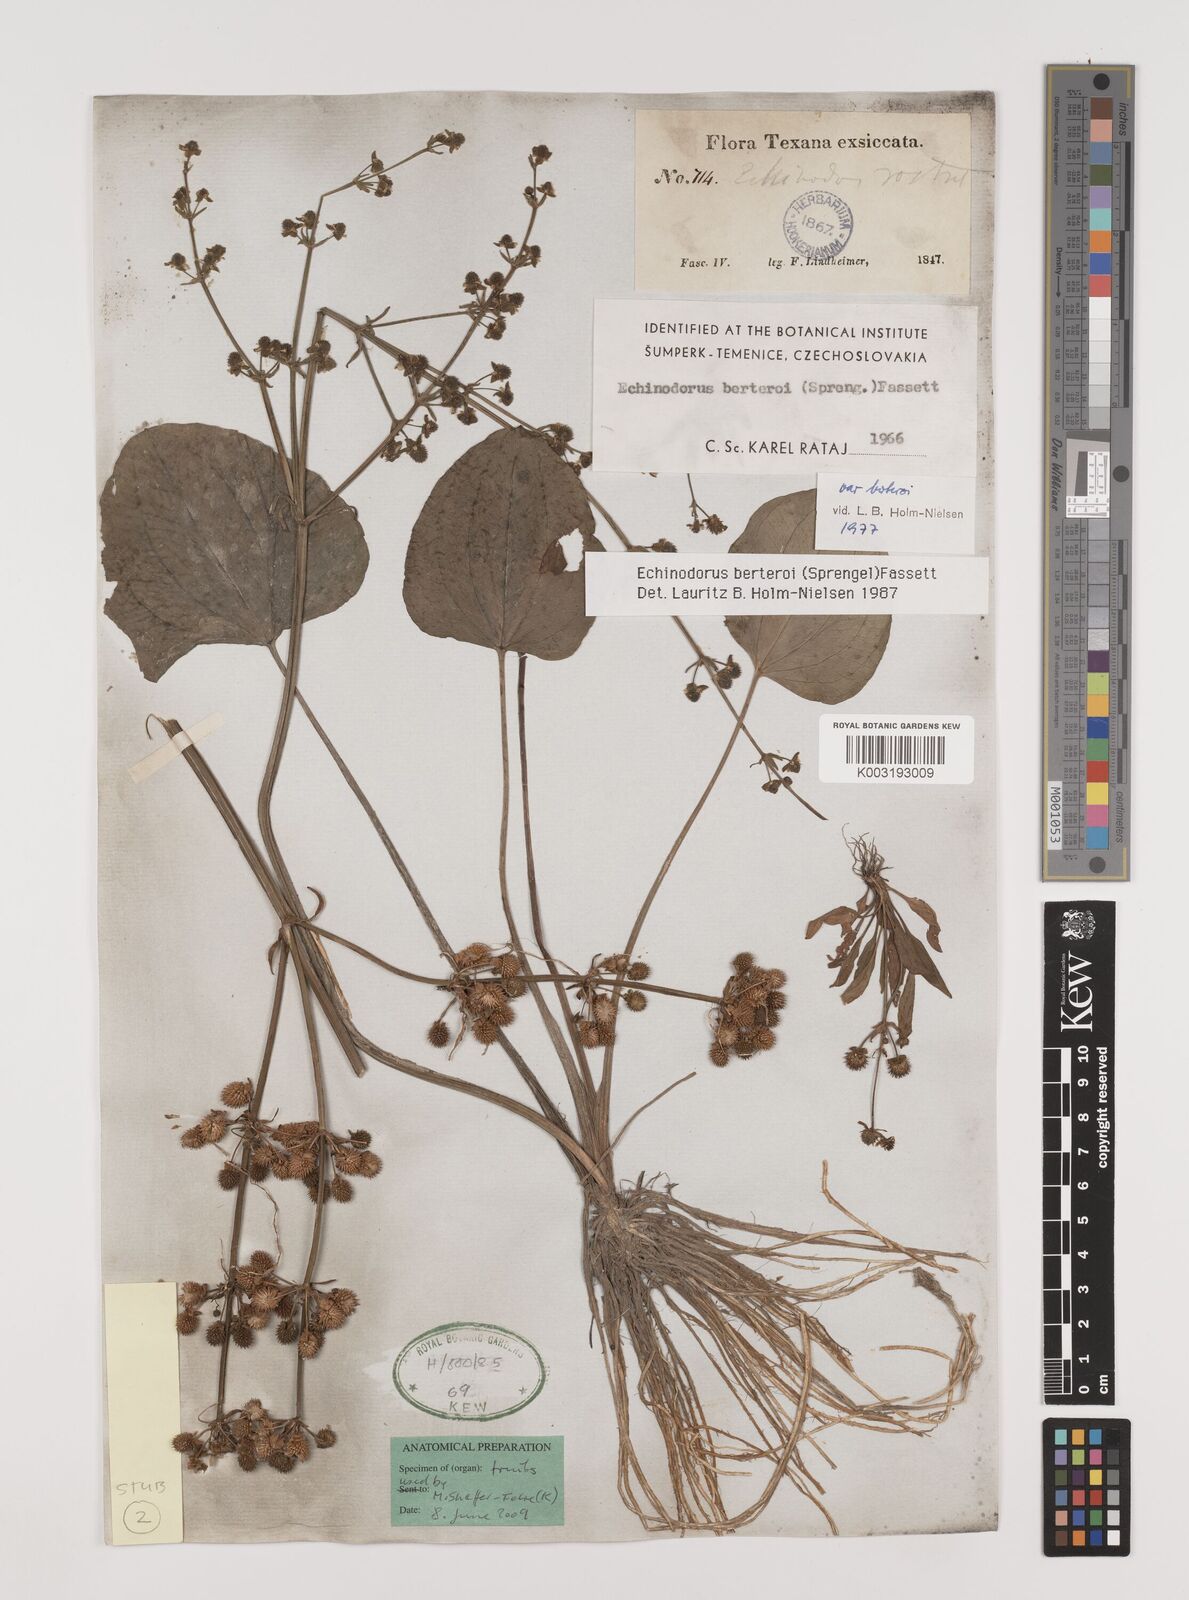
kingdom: Plantae
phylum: Tracheophyta
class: Liliopsida
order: Alismatales
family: Alismataceae
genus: Echinodorus
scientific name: Echinodorus berteroi
